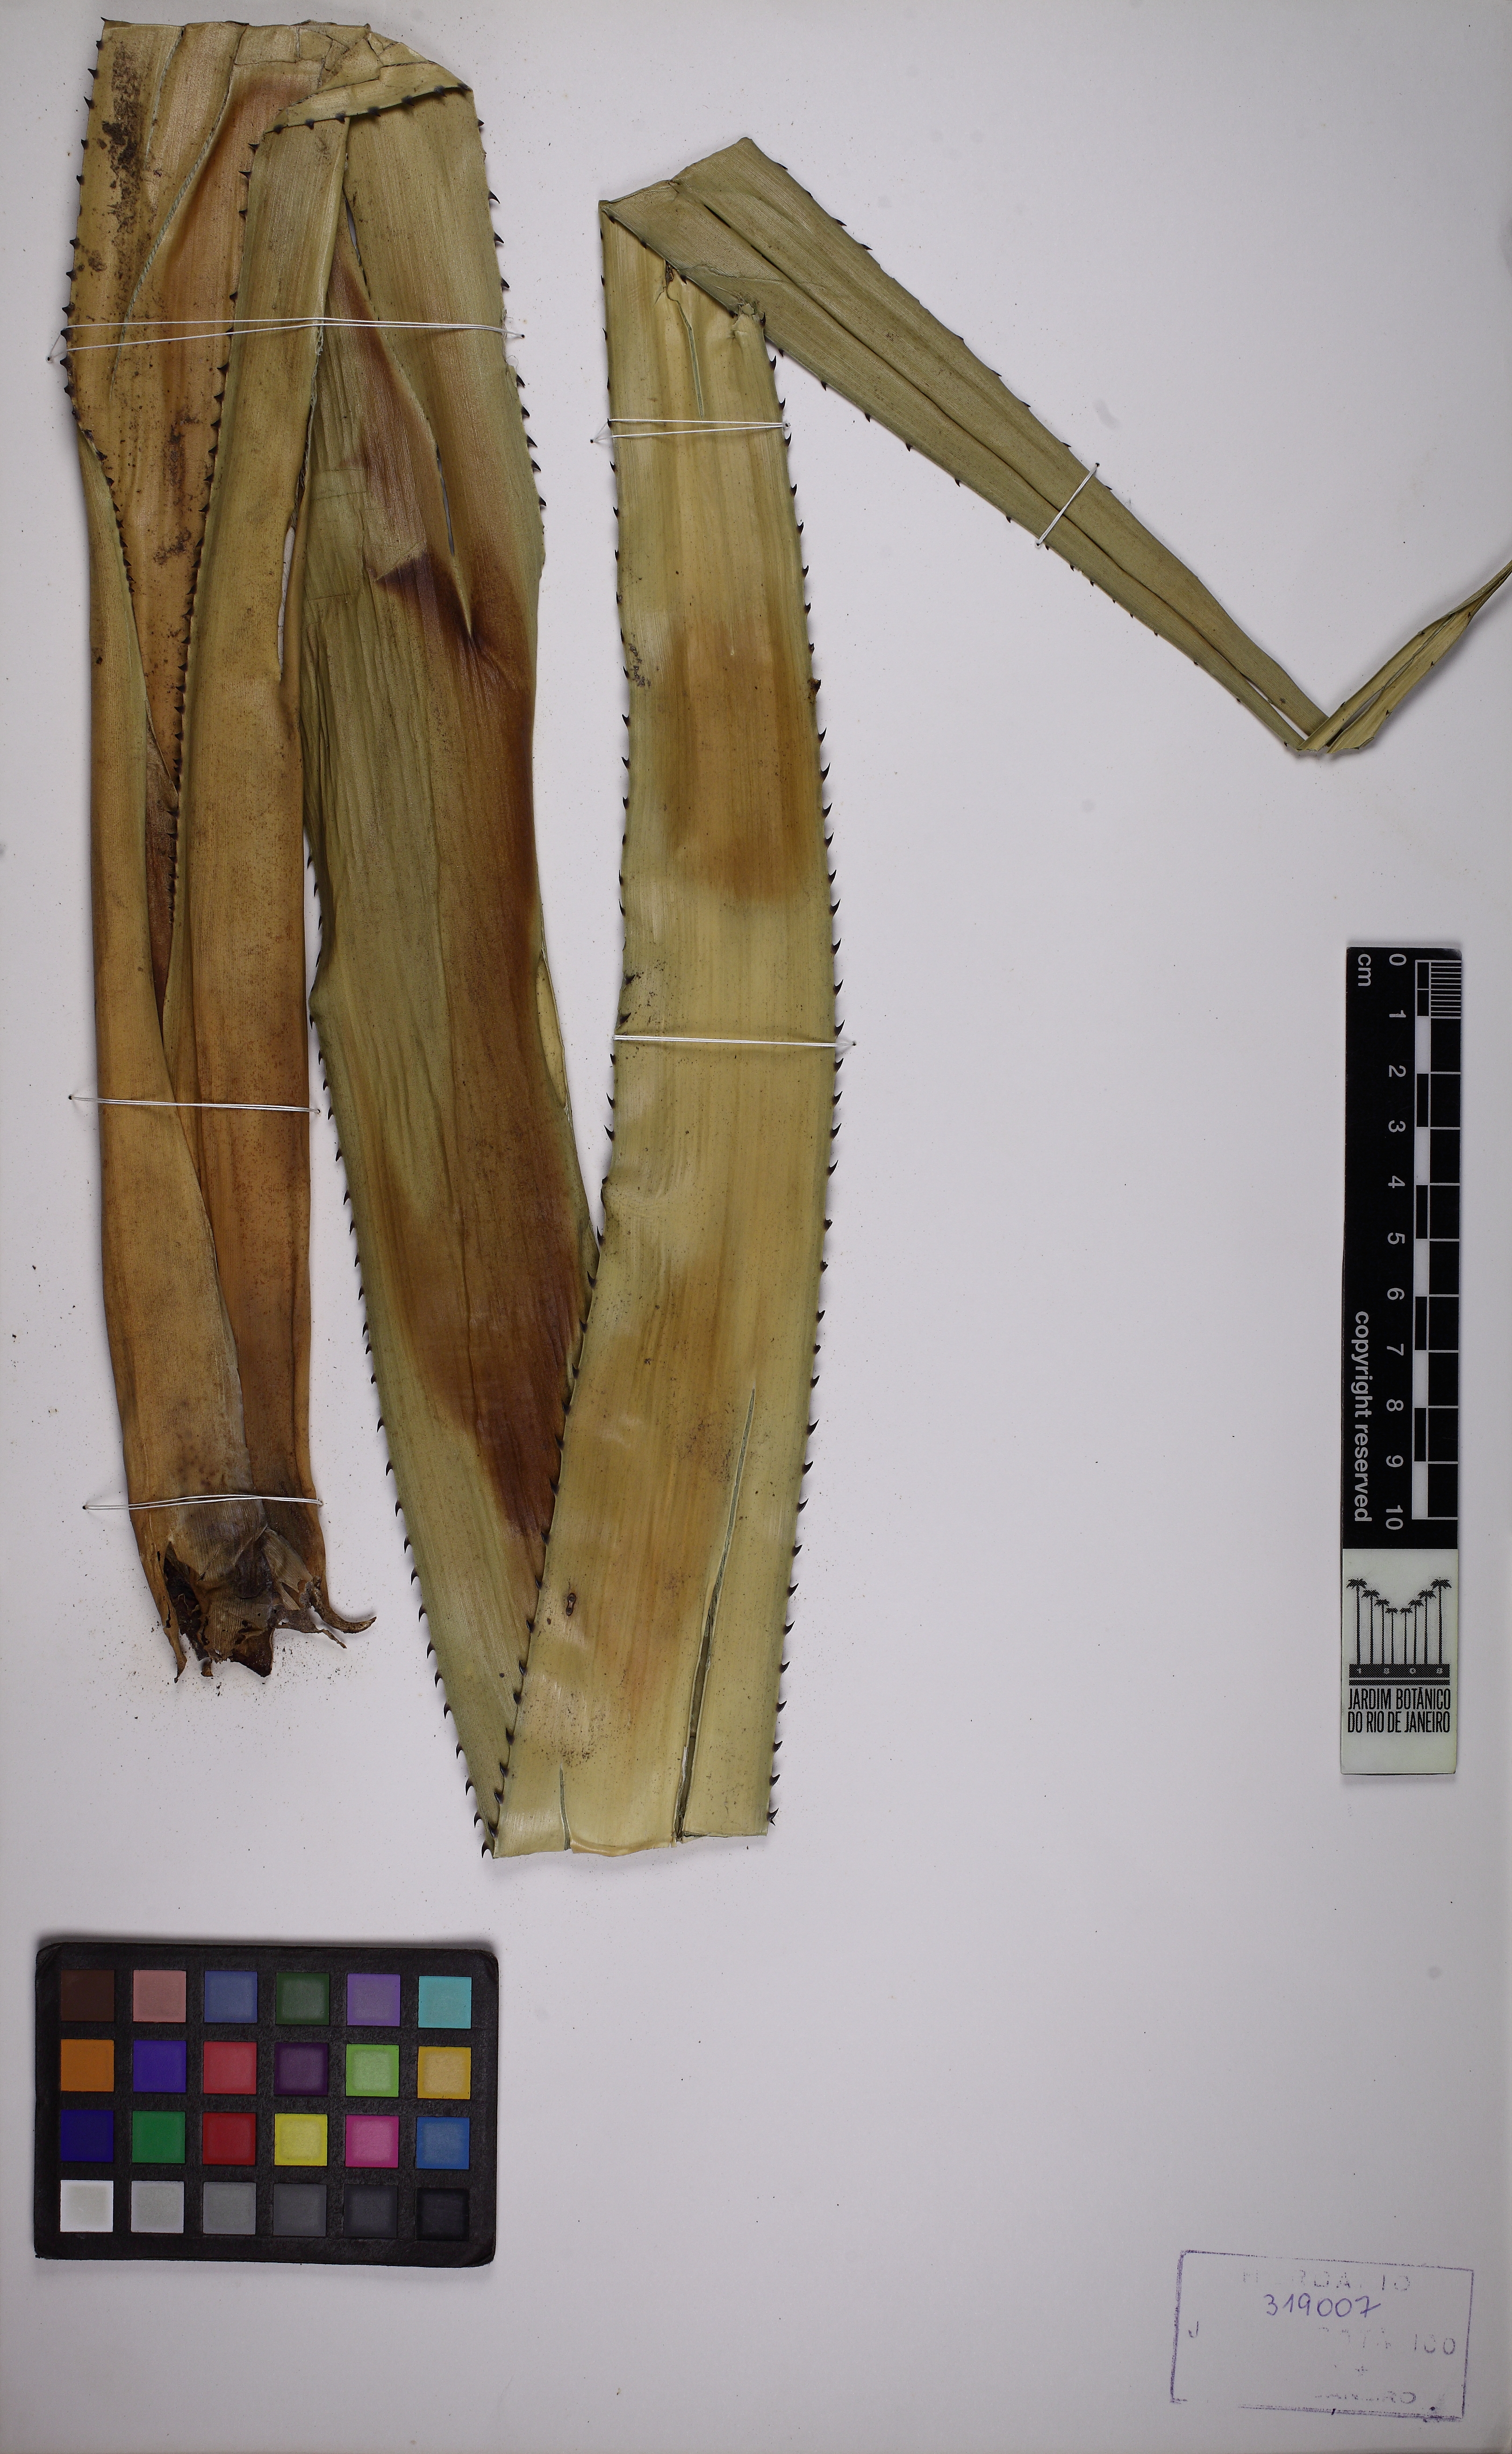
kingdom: Plantae
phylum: Tracheophyta
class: Liliopsida
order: Poales
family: Bromeliaceae
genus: Aechmea
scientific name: Aechmea purpureorosea
